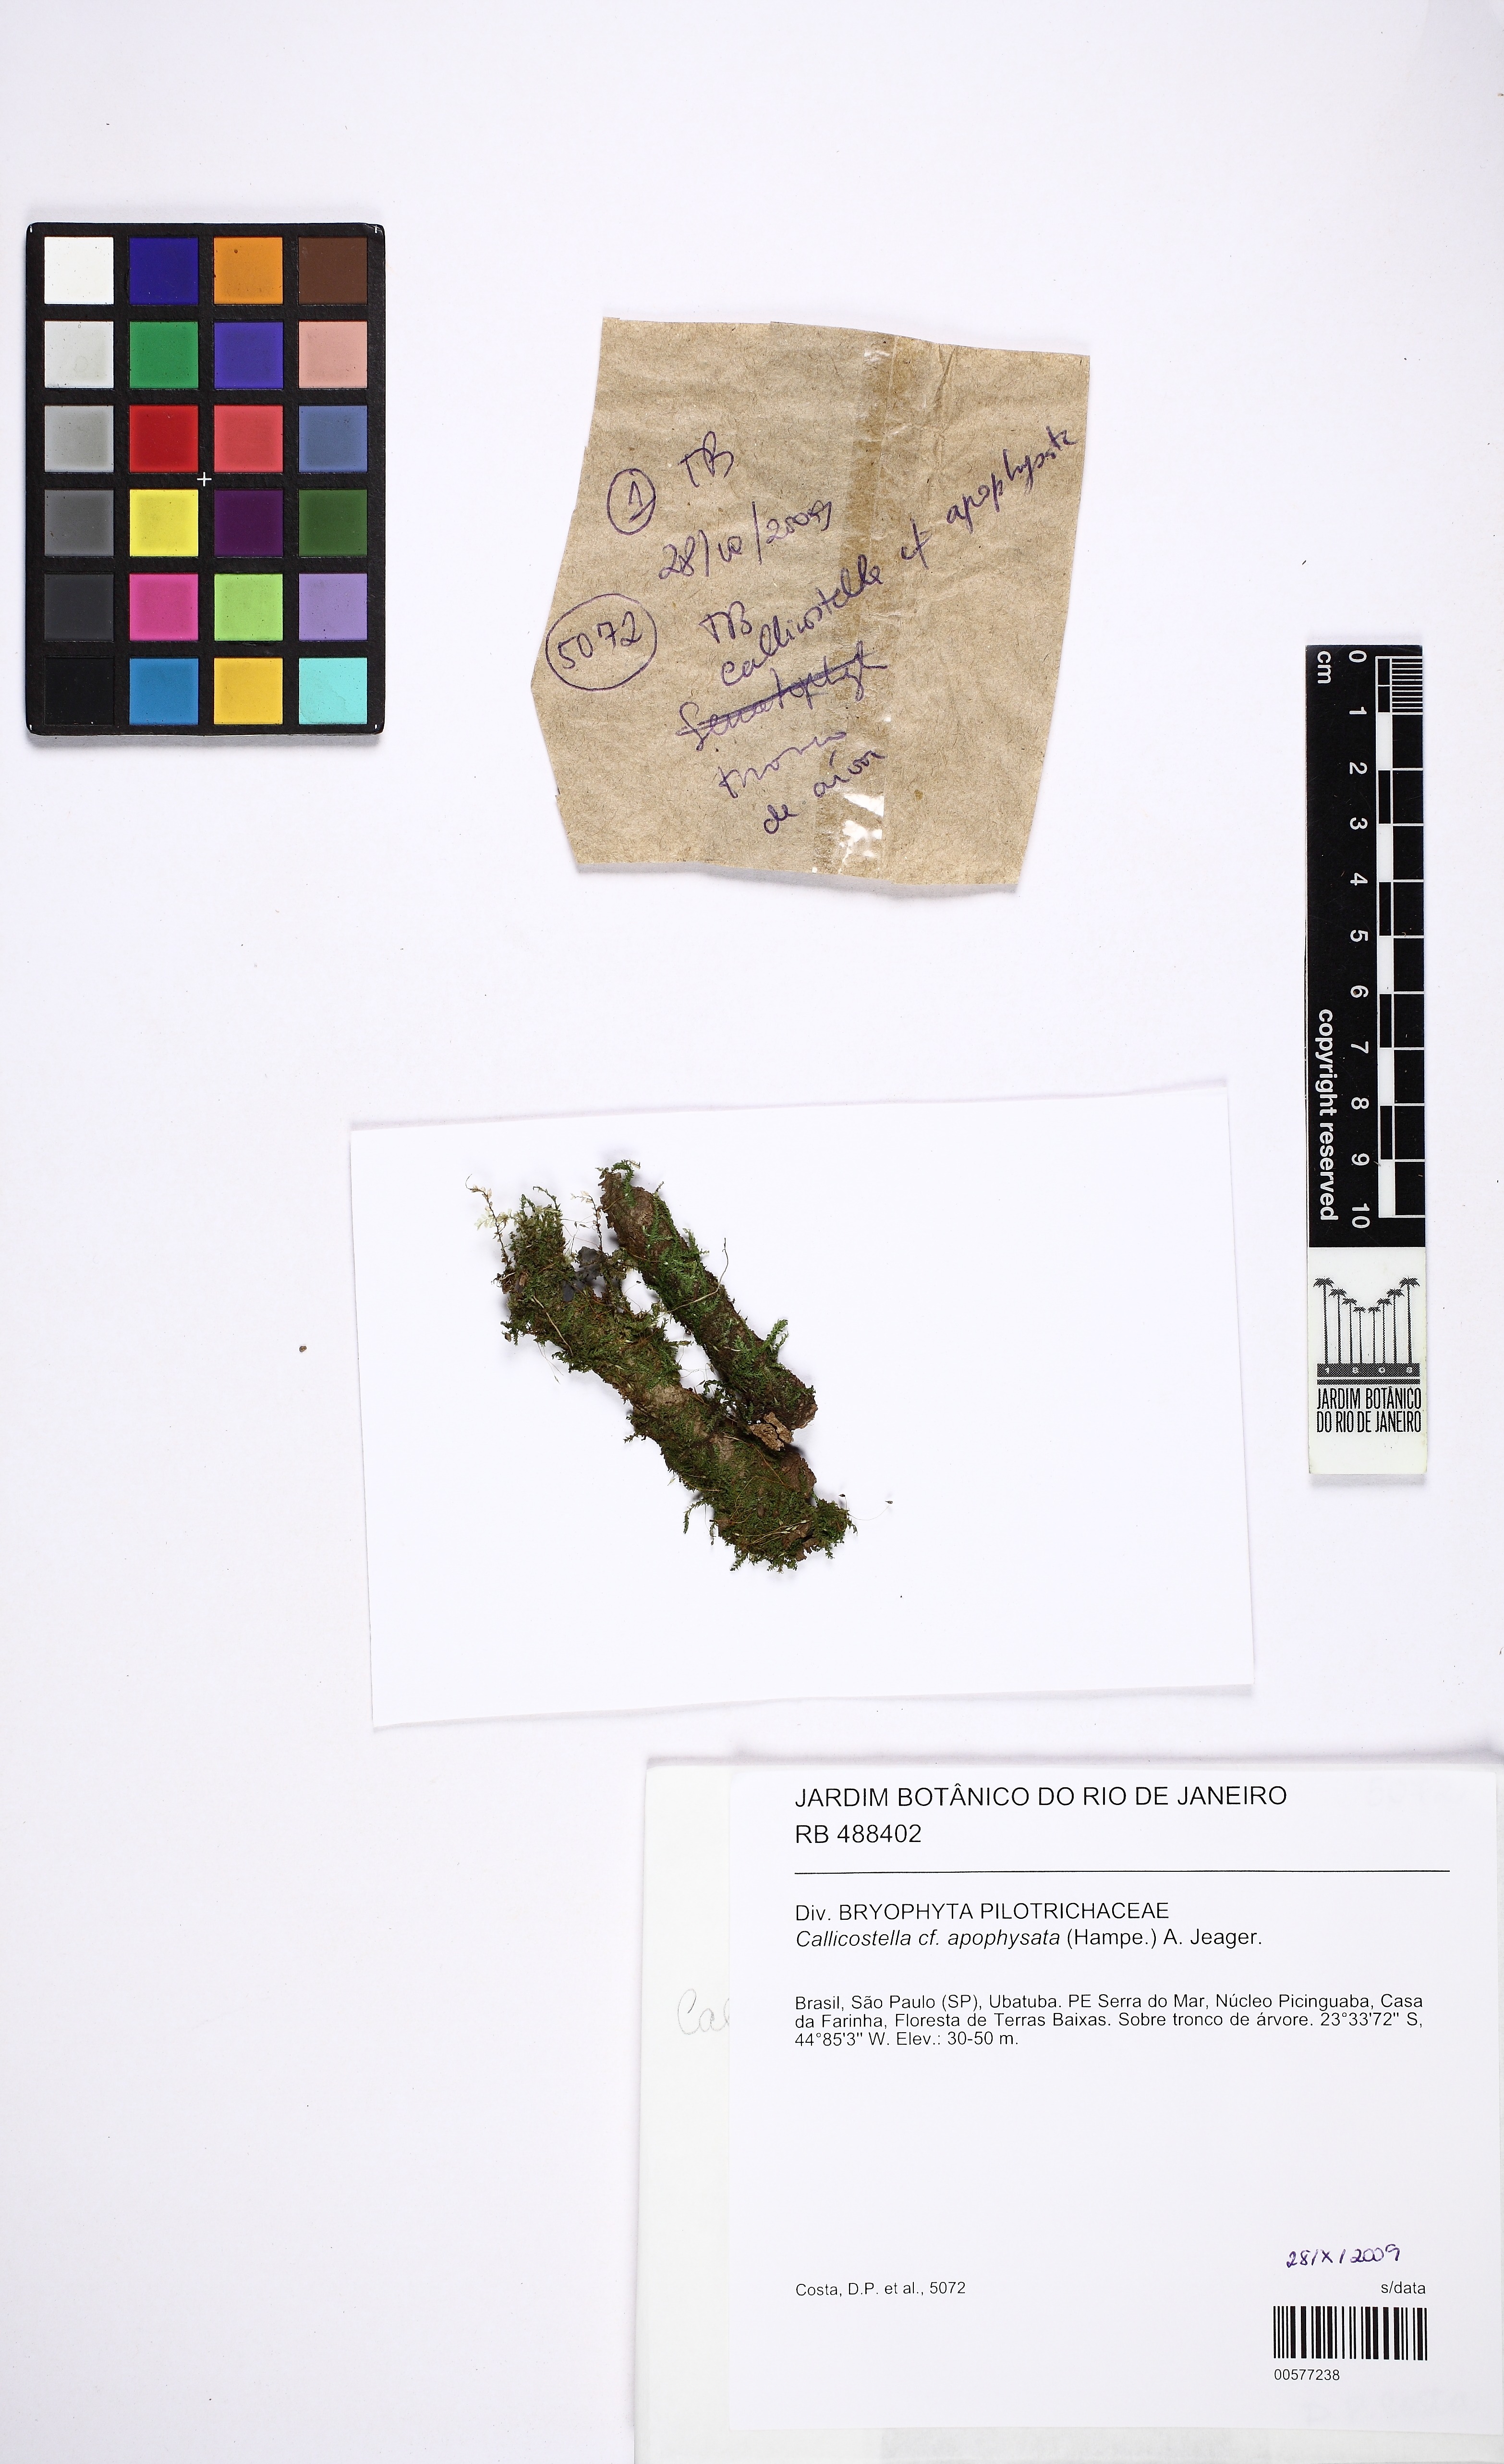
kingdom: Plantae
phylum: Bryophyta
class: Bryopsida
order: Hookeriales
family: Pilotrichaceae
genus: Callicostella
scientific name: Callicostella apophysata
